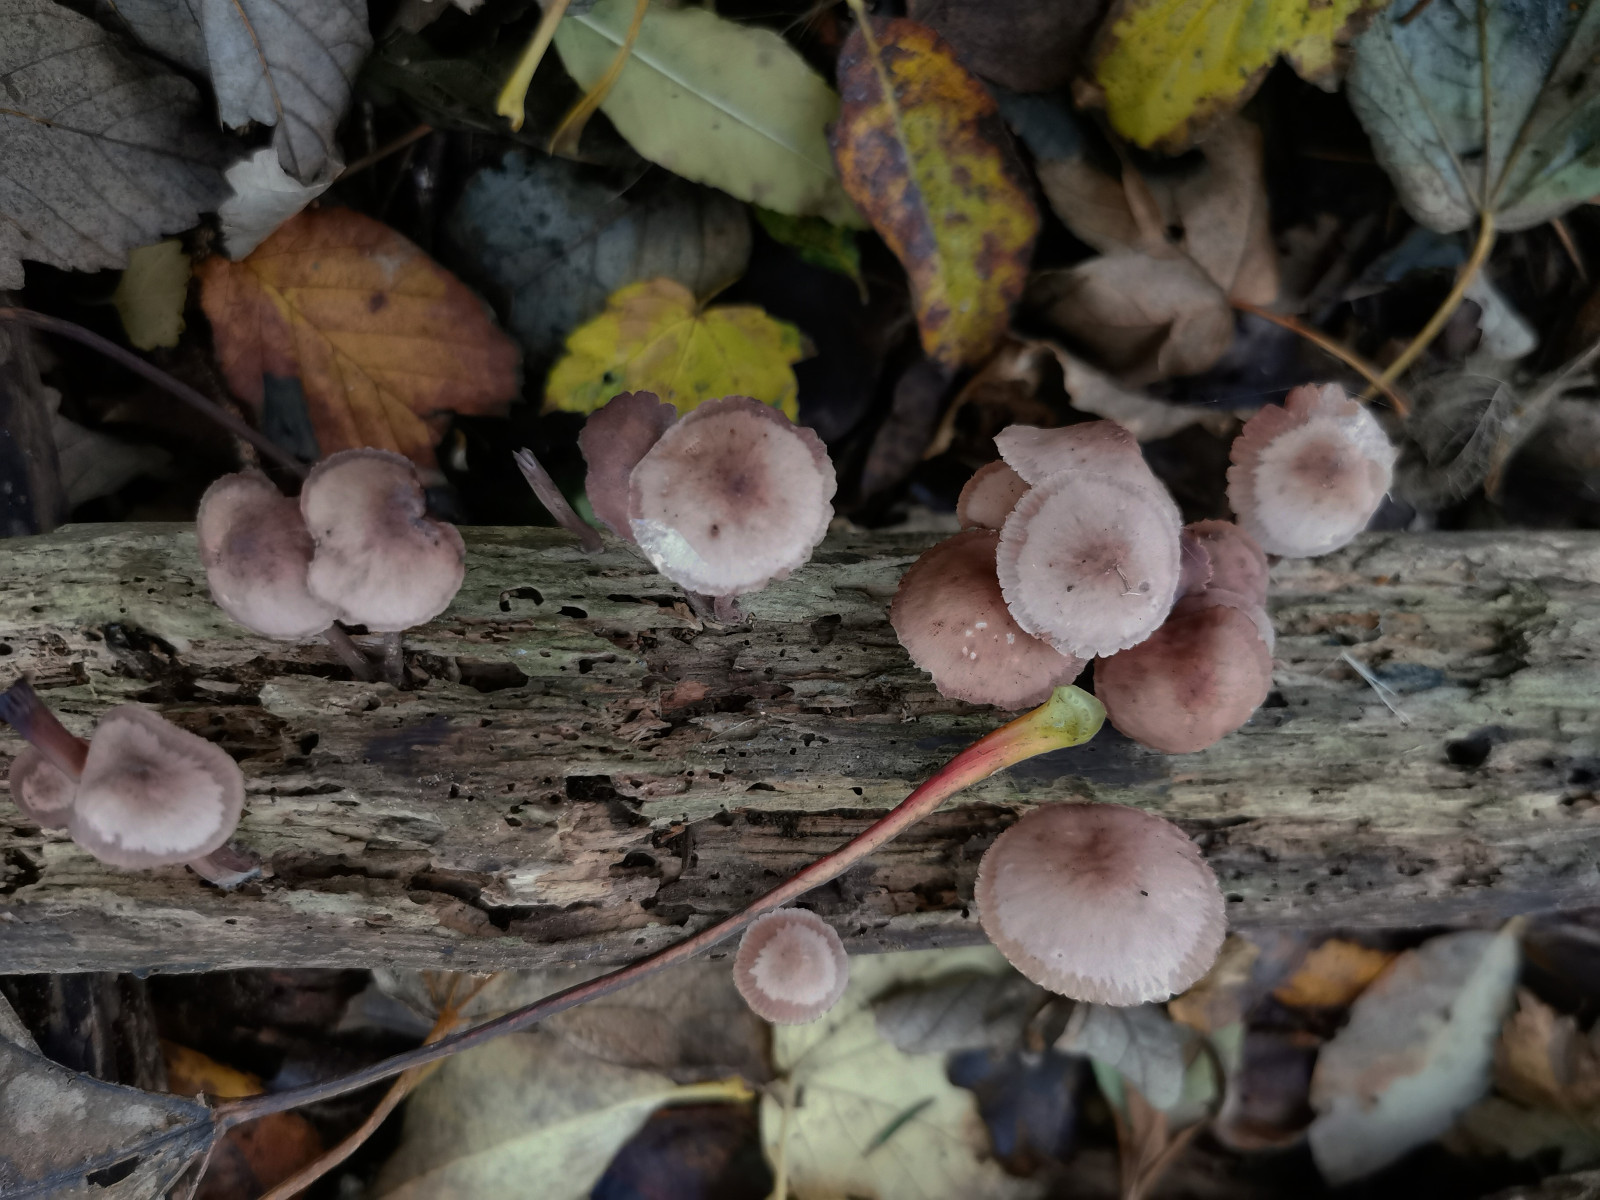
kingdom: Fungi
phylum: Basidiomycota
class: Agaricomycetes
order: Agaricales
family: Mycenaceae
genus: Mycena
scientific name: Mycena haematopus
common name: blødende huesvamp
